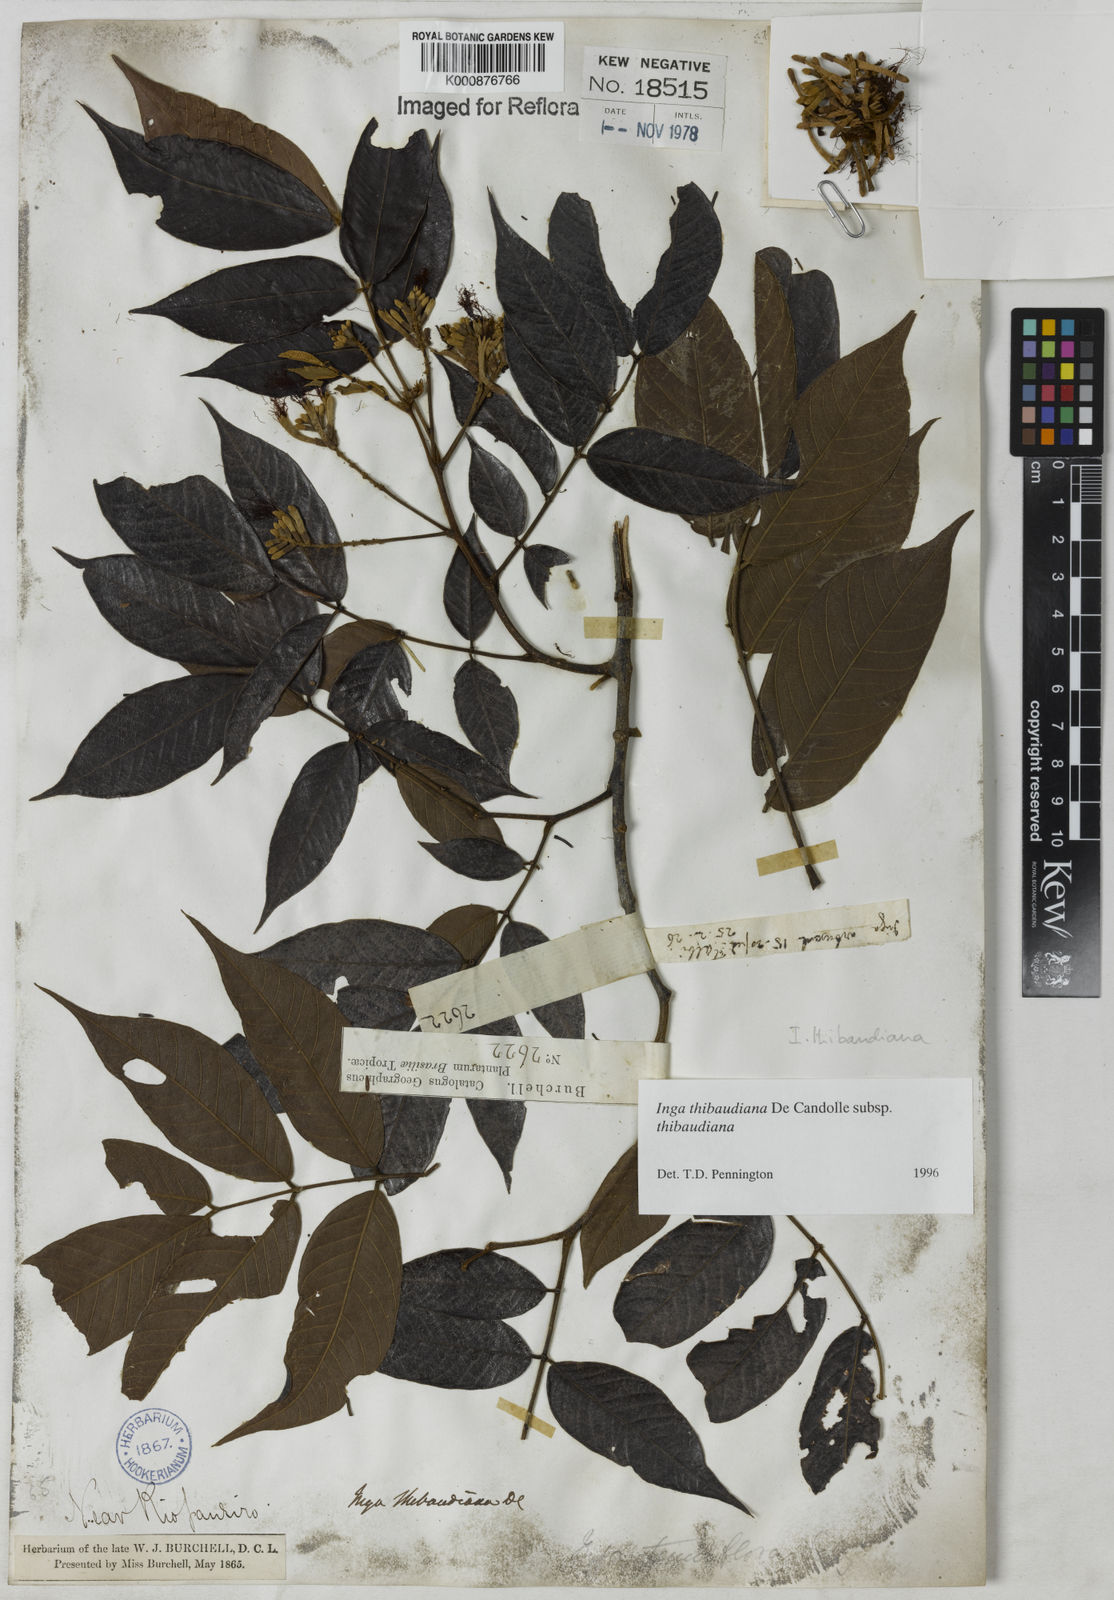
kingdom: Plantae
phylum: Tracheophyta
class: Magnoliopsida
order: Fabales
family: Fabaceae
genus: Inga
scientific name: Inga thibaudiana
